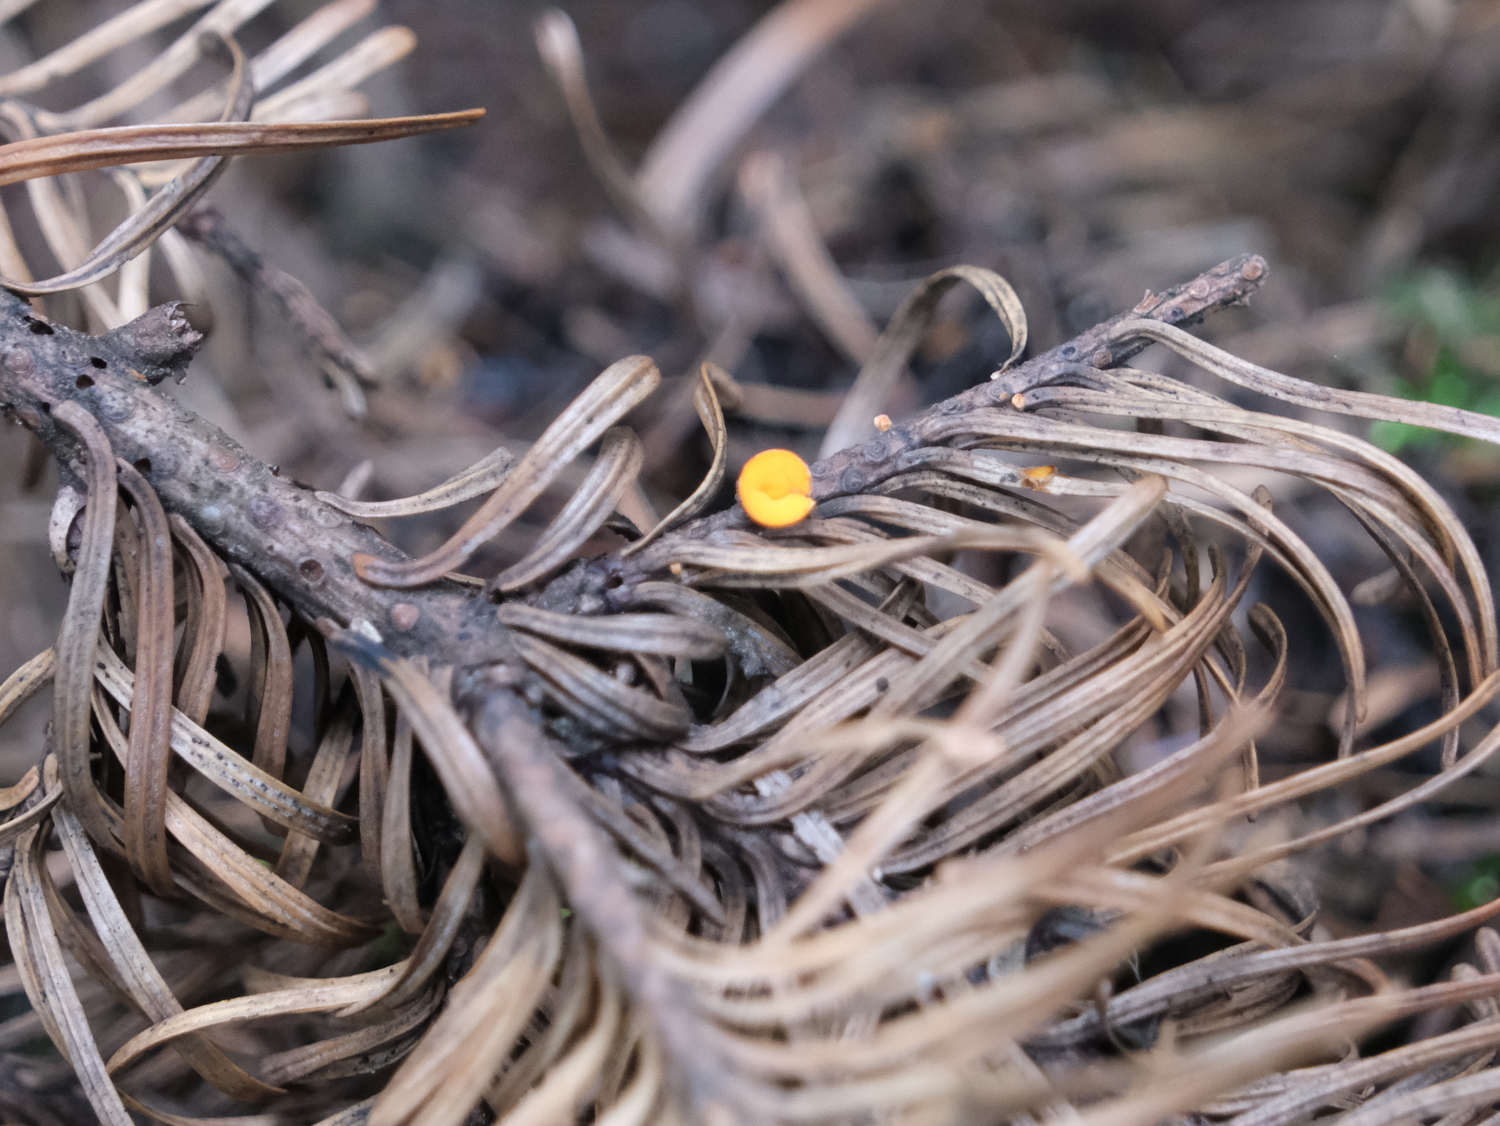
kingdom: Fungi
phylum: Ascomycota
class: Pezizomycetes
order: Pezizales
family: Sarcoscyphaceae
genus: Pithya
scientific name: Pithya vulgaris
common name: stor dukatbæger
